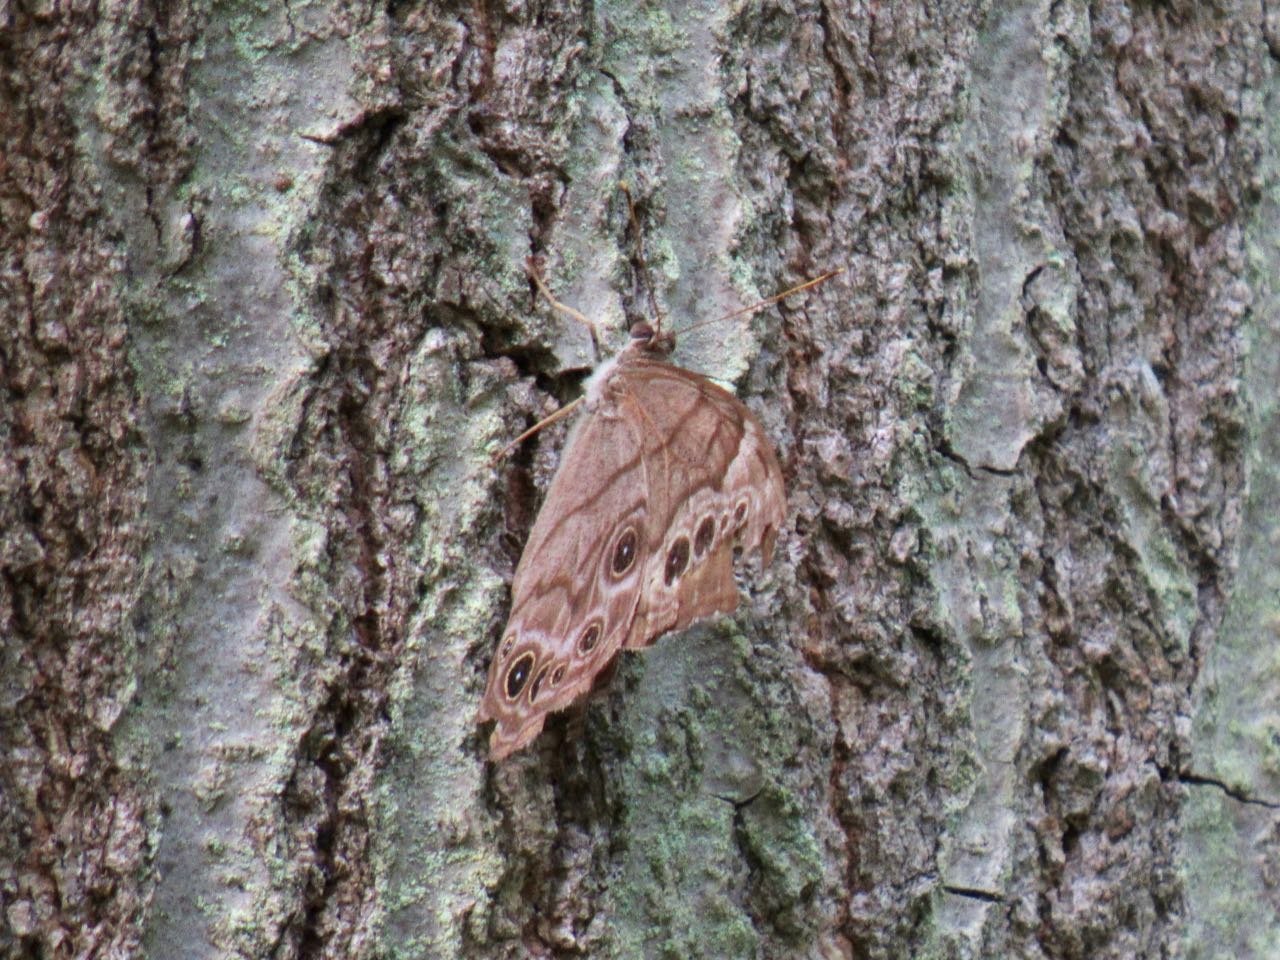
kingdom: Animalia
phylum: Arthropoda
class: Insecta
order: Lepidoptera
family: Nymphalidae
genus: Lethe
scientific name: Lethe anthedon
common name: Northern Pearly-Eye
